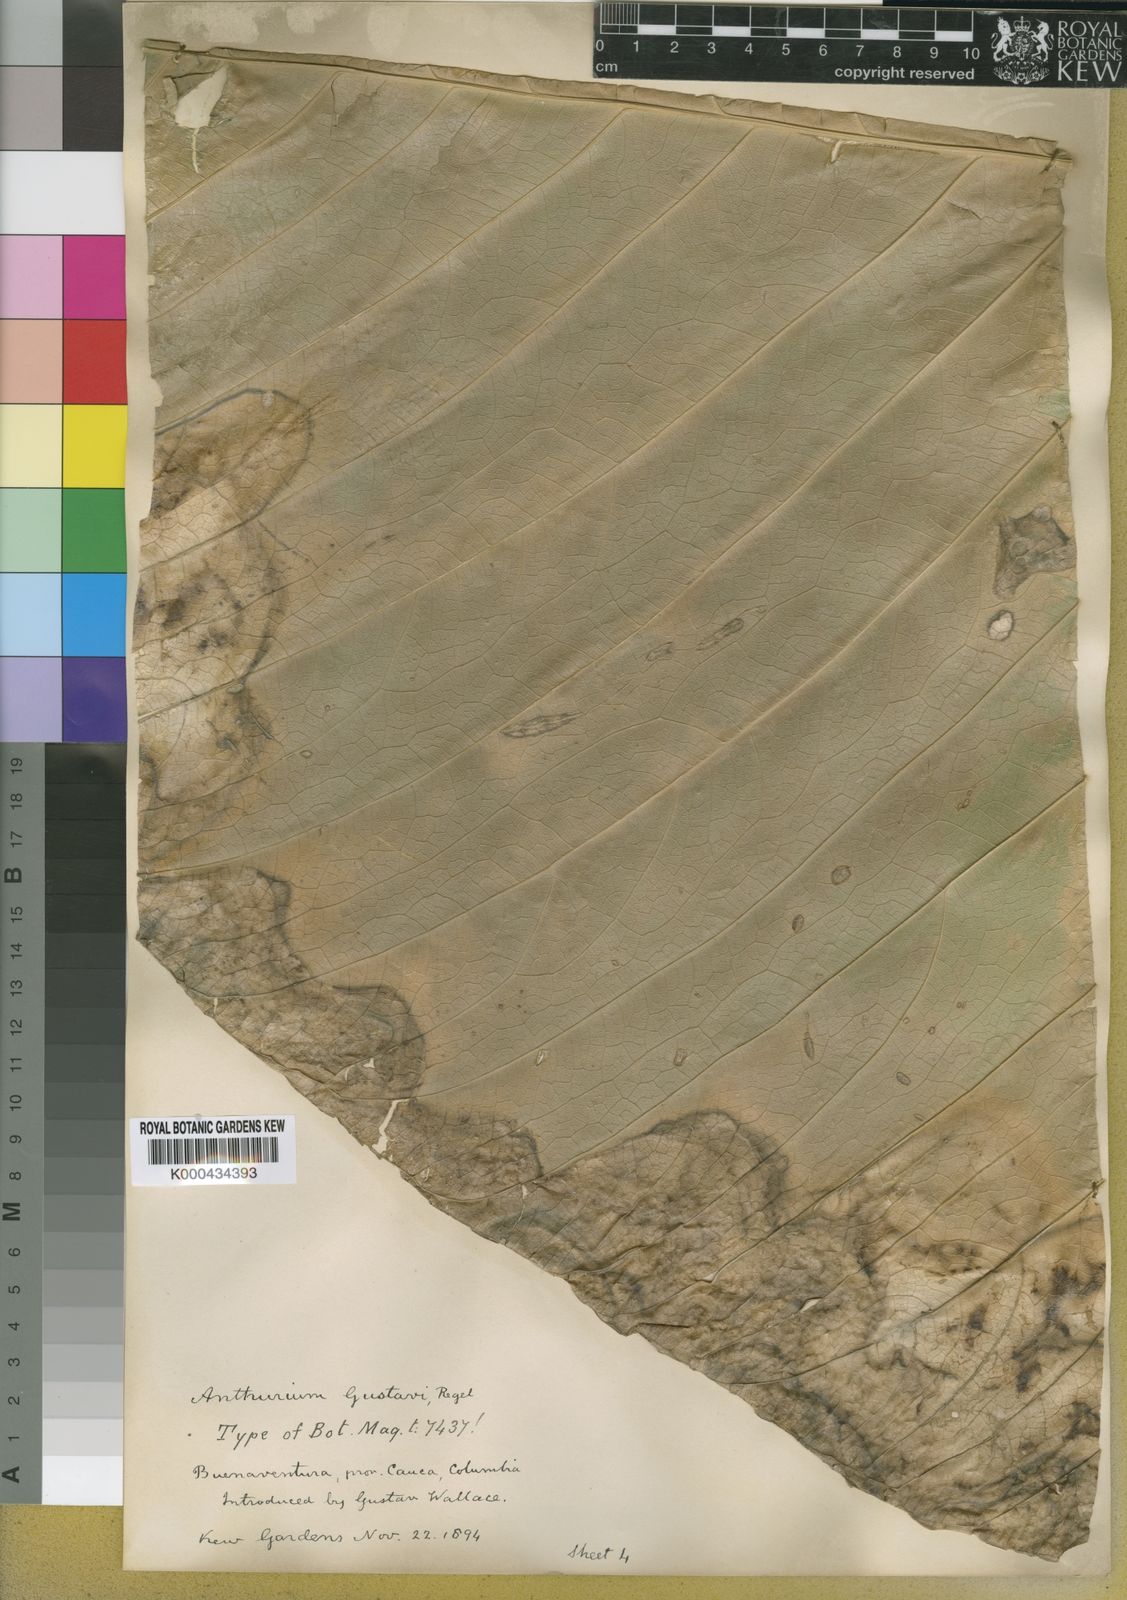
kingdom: Plantae
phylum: Tracheophyta
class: Liliopsida
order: Alismatales
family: Araceae
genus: Anthurium
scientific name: Anthurium gustavii
